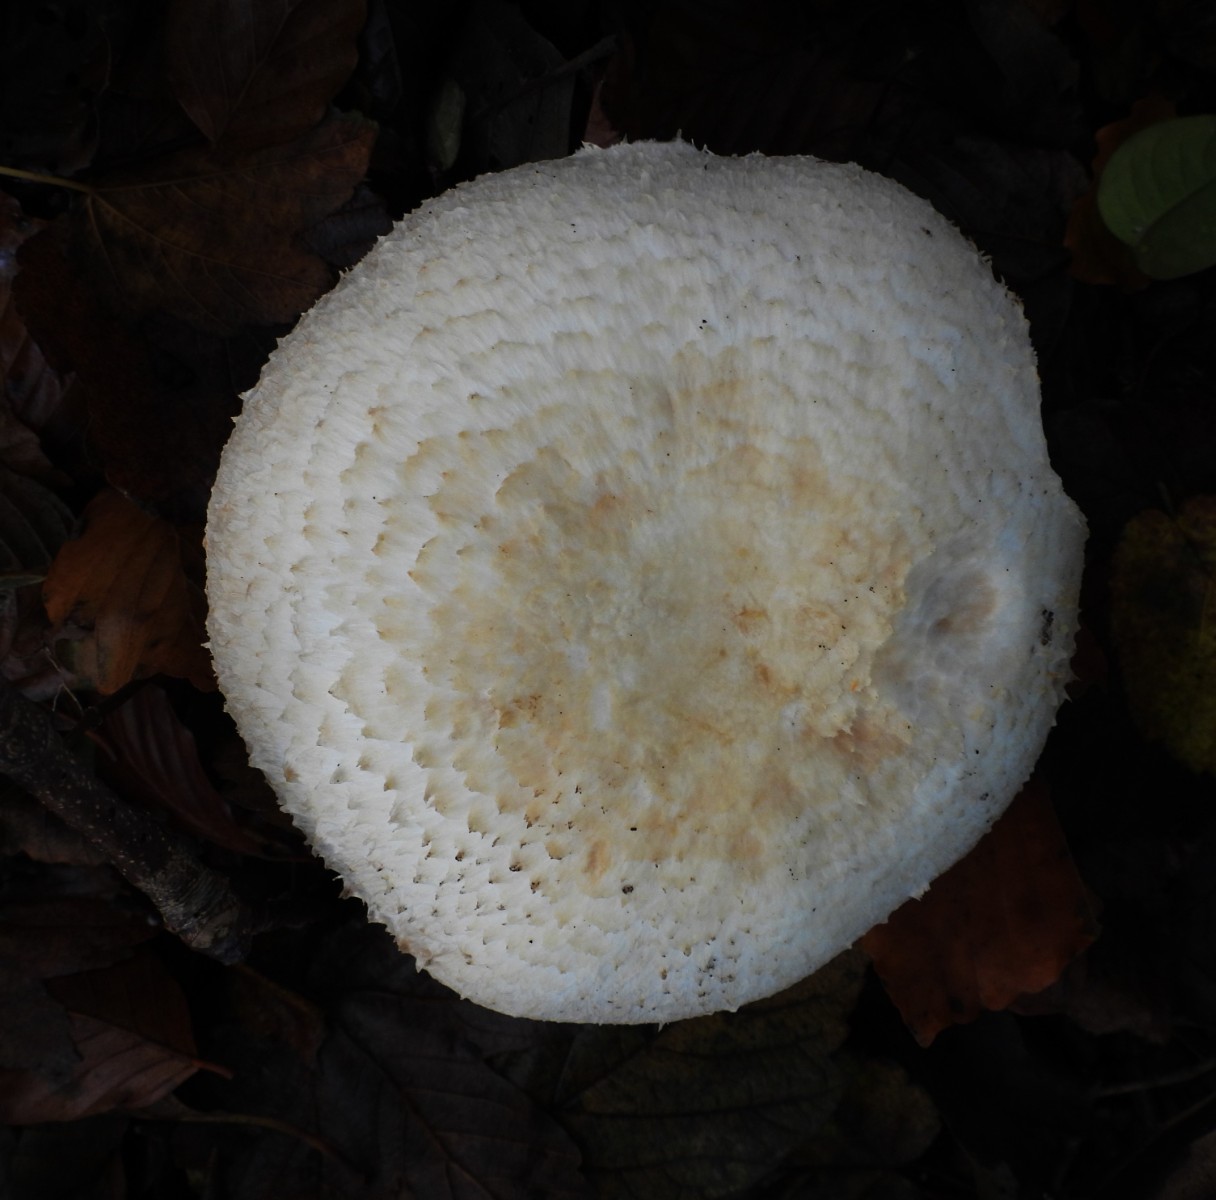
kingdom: Fungi
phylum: Basidiomycota
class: Agaricomycetes
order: Agaricales
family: Agaricaceae
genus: Agaricus
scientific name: Agaricus
